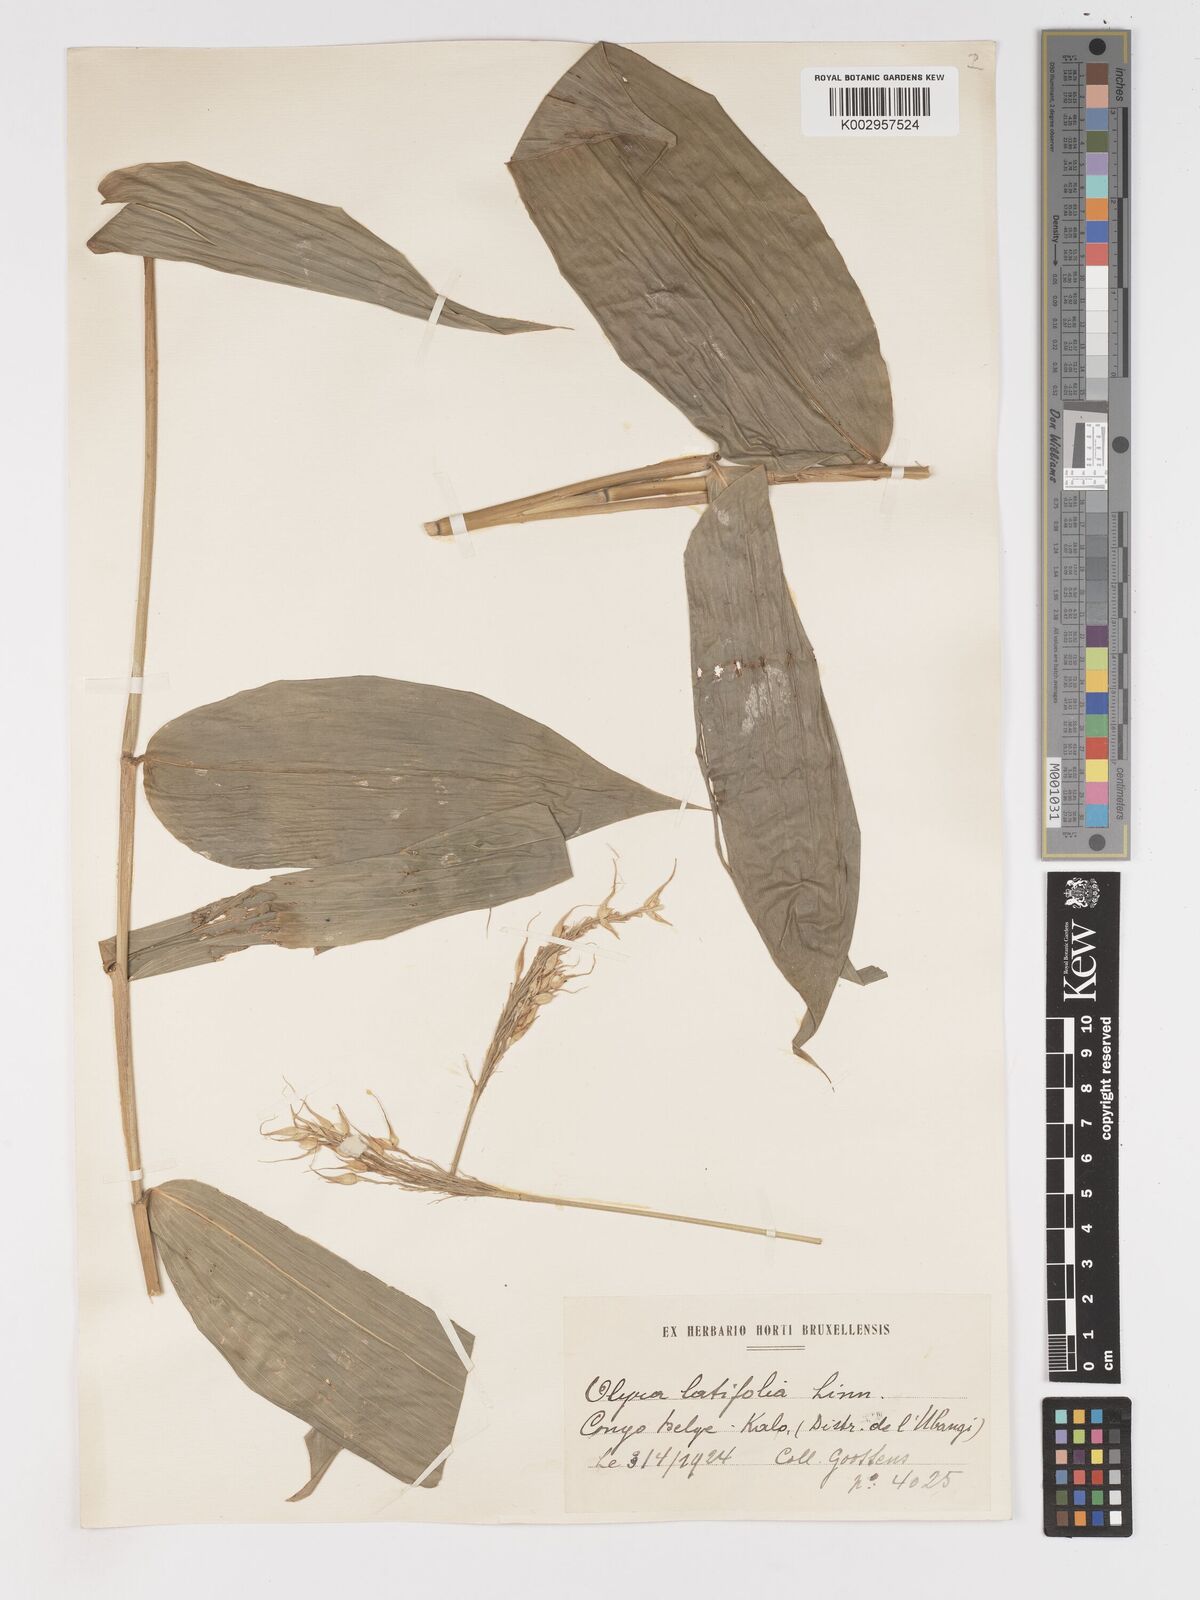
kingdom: Plantae
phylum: Tracheophyta
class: Liliopsida
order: Poales
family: Poaceae
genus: Olyra
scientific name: Olyra latifolia
